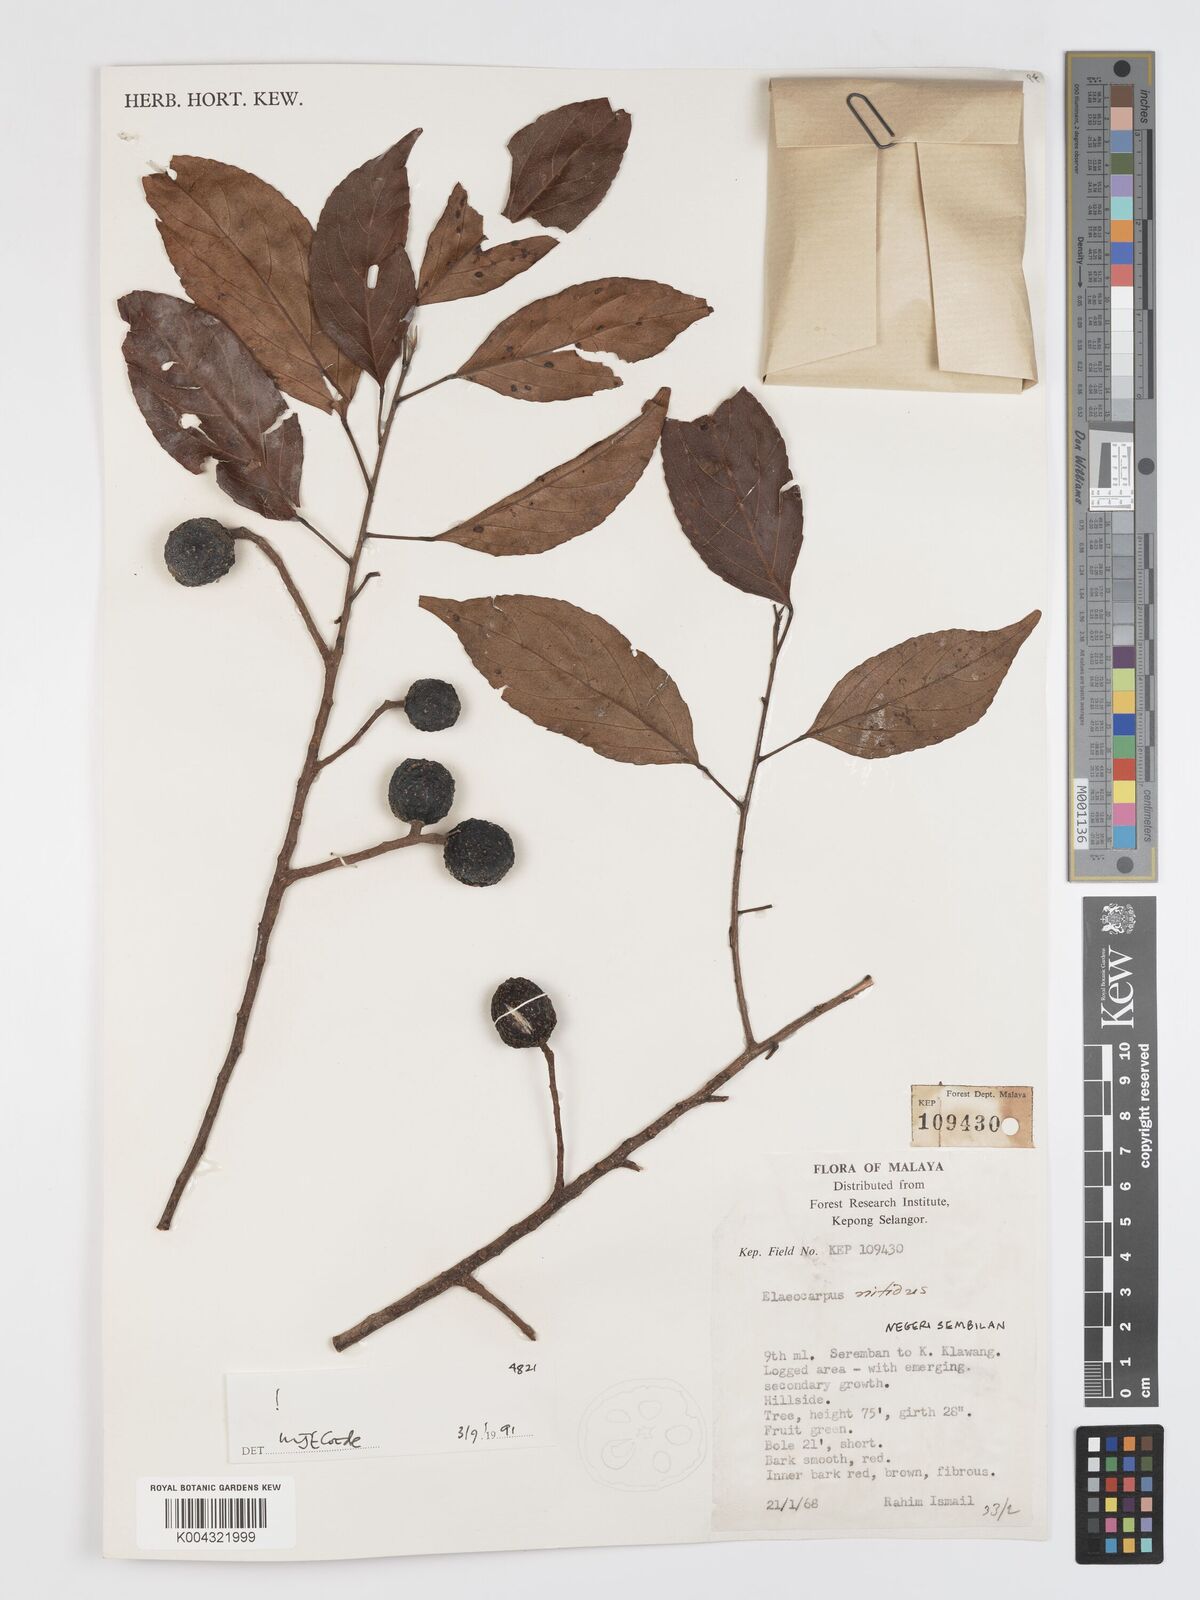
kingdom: Plantae
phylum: Tracheophyta
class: Magnoliopsida
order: Oxalidales
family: Elaeocarpaceae
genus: Elaeocarpus
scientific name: Elaeocarpus nitidus
